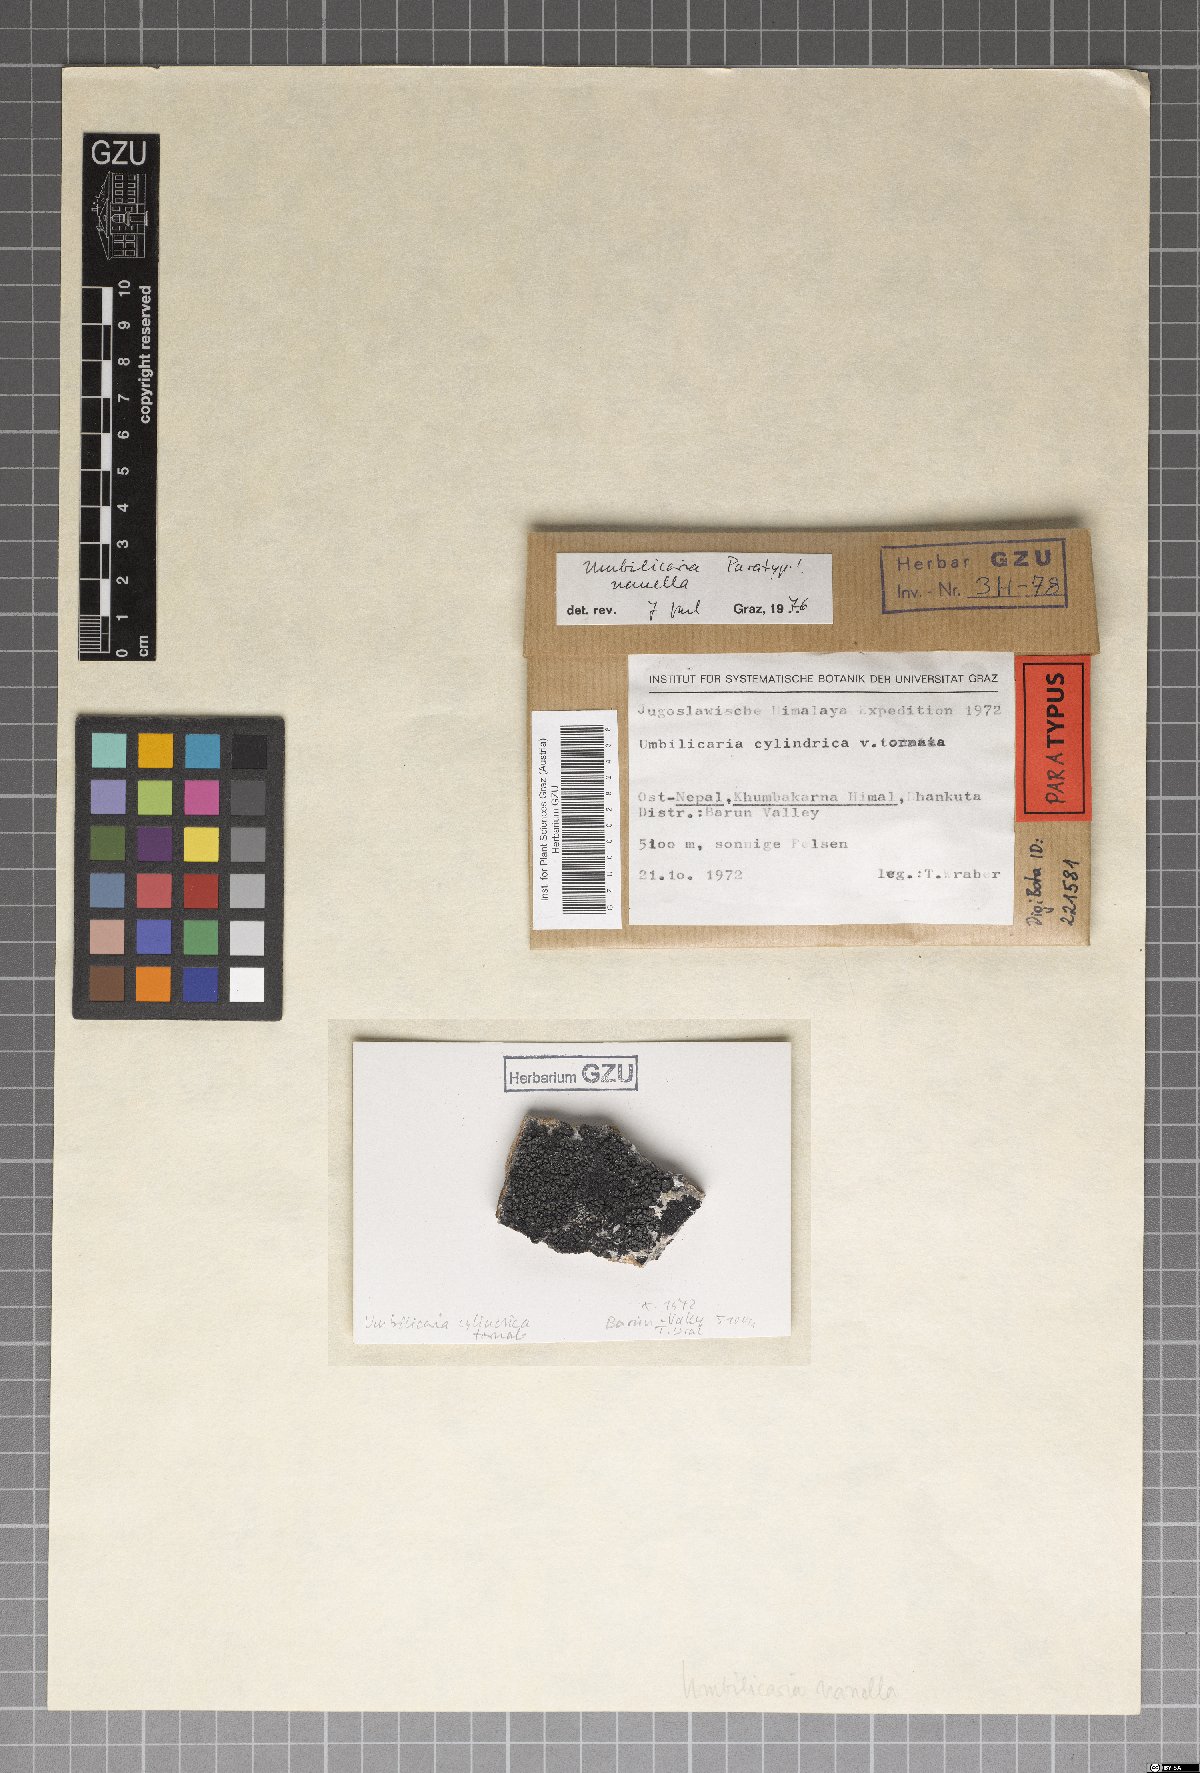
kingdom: Fungi
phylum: Ascomycota
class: Lecanoromycetes
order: Umbilicariales
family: Umbilicariaceae
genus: Umbilicaria
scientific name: Umbilicaria
